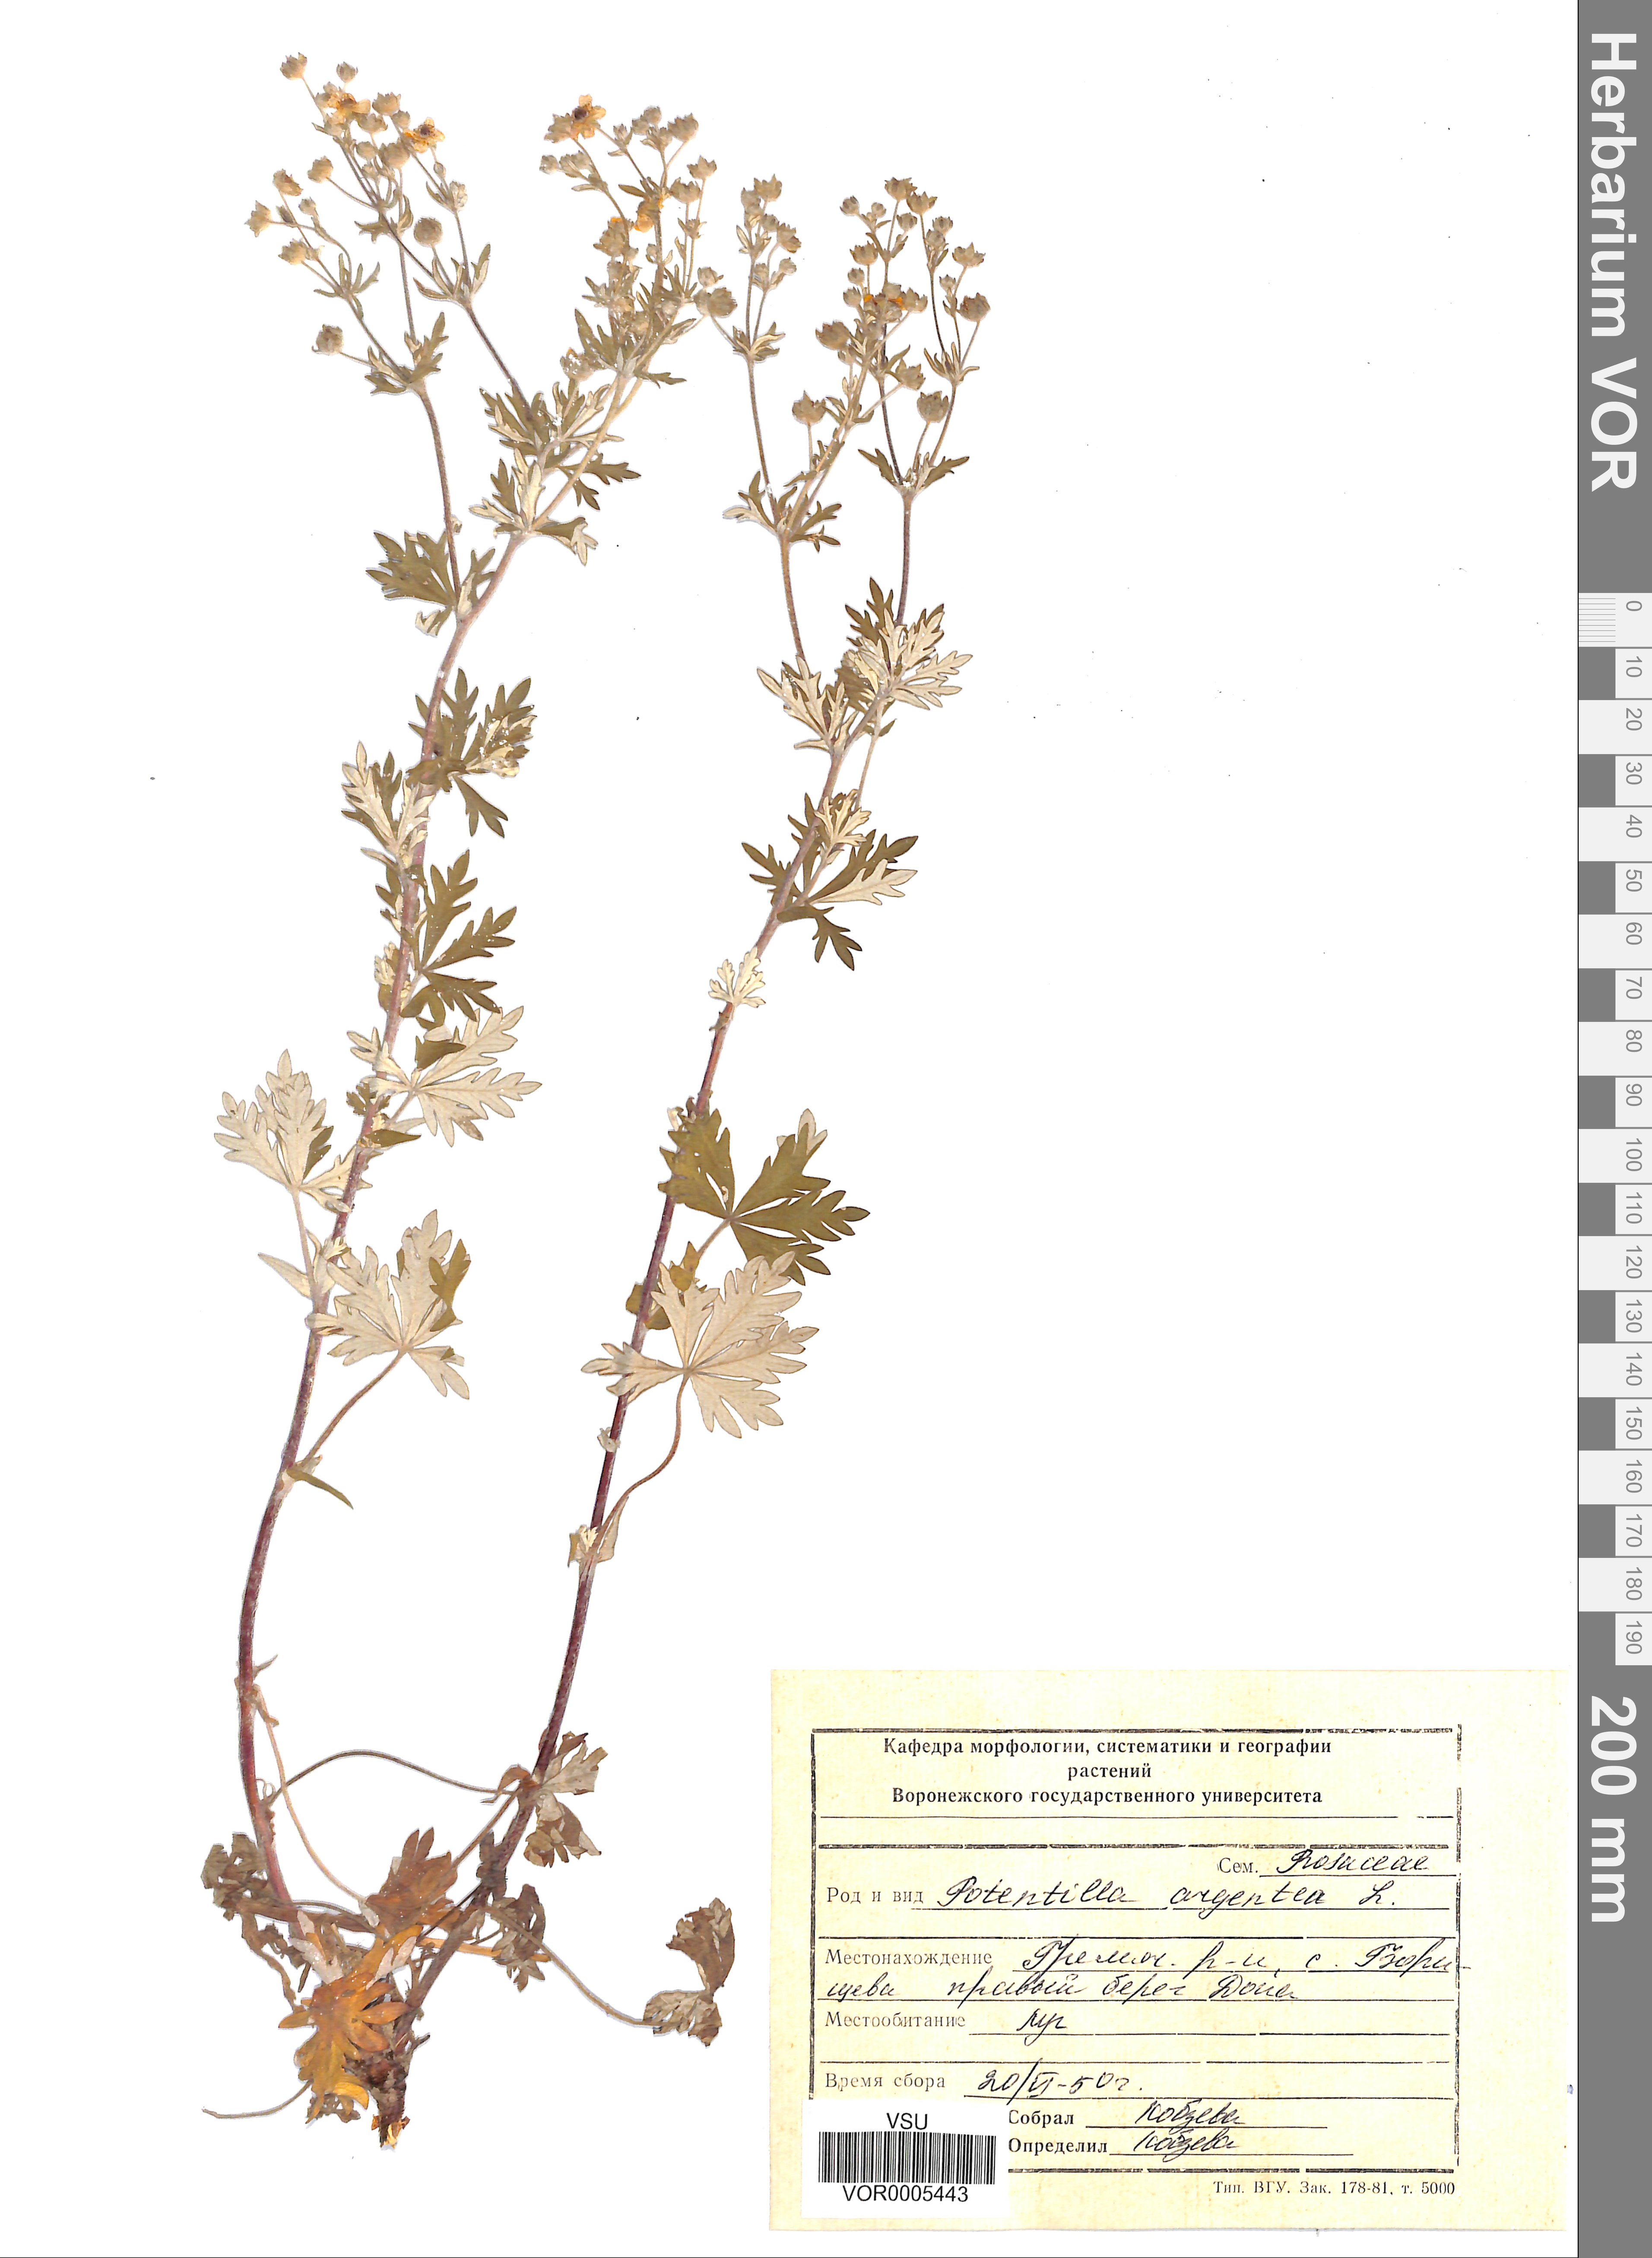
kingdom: Plantae
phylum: Tracheophyta
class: Magnoliopsida
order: Rosales
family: Rosaceae
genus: Potentilla
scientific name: Potentilla argentea
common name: Hoary cinquefoil
